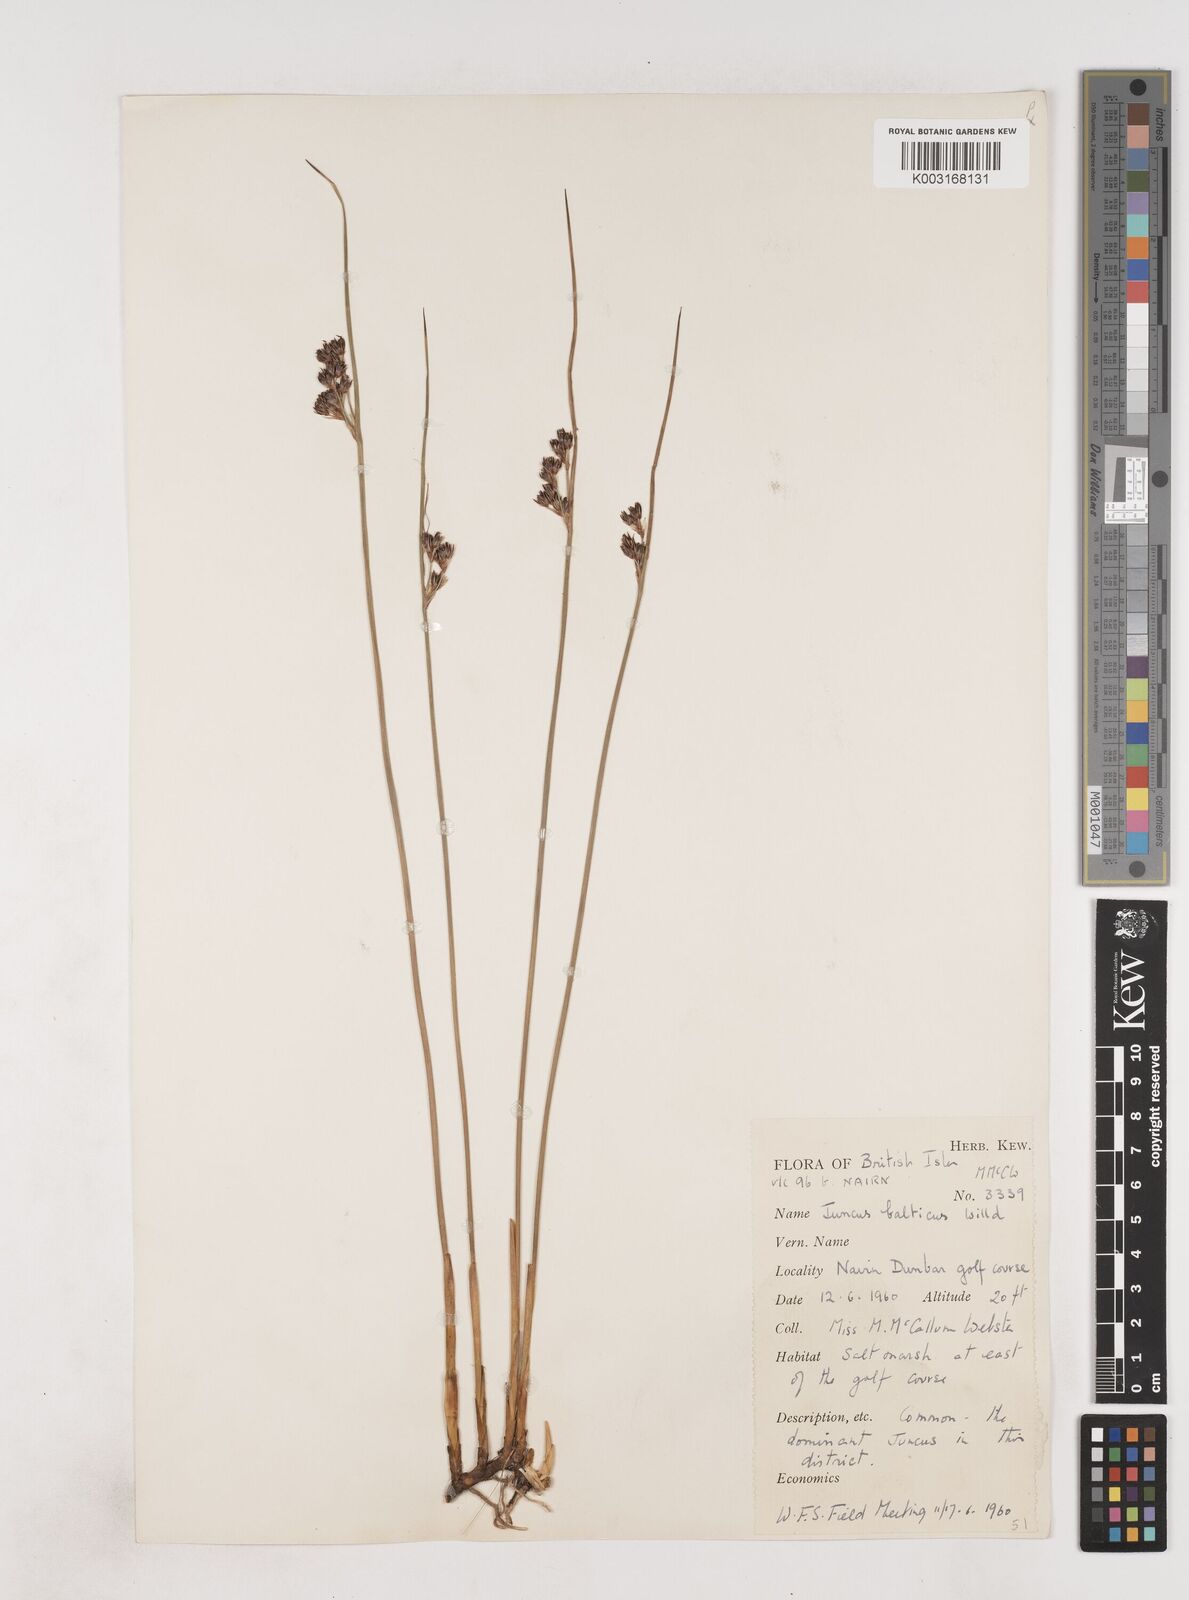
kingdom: Plantae
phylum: Tracheophyta
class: Liliopsida
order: Poales
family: Juncaceae
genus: Juncus
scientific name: Juncus balticus
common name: Baltic rush
